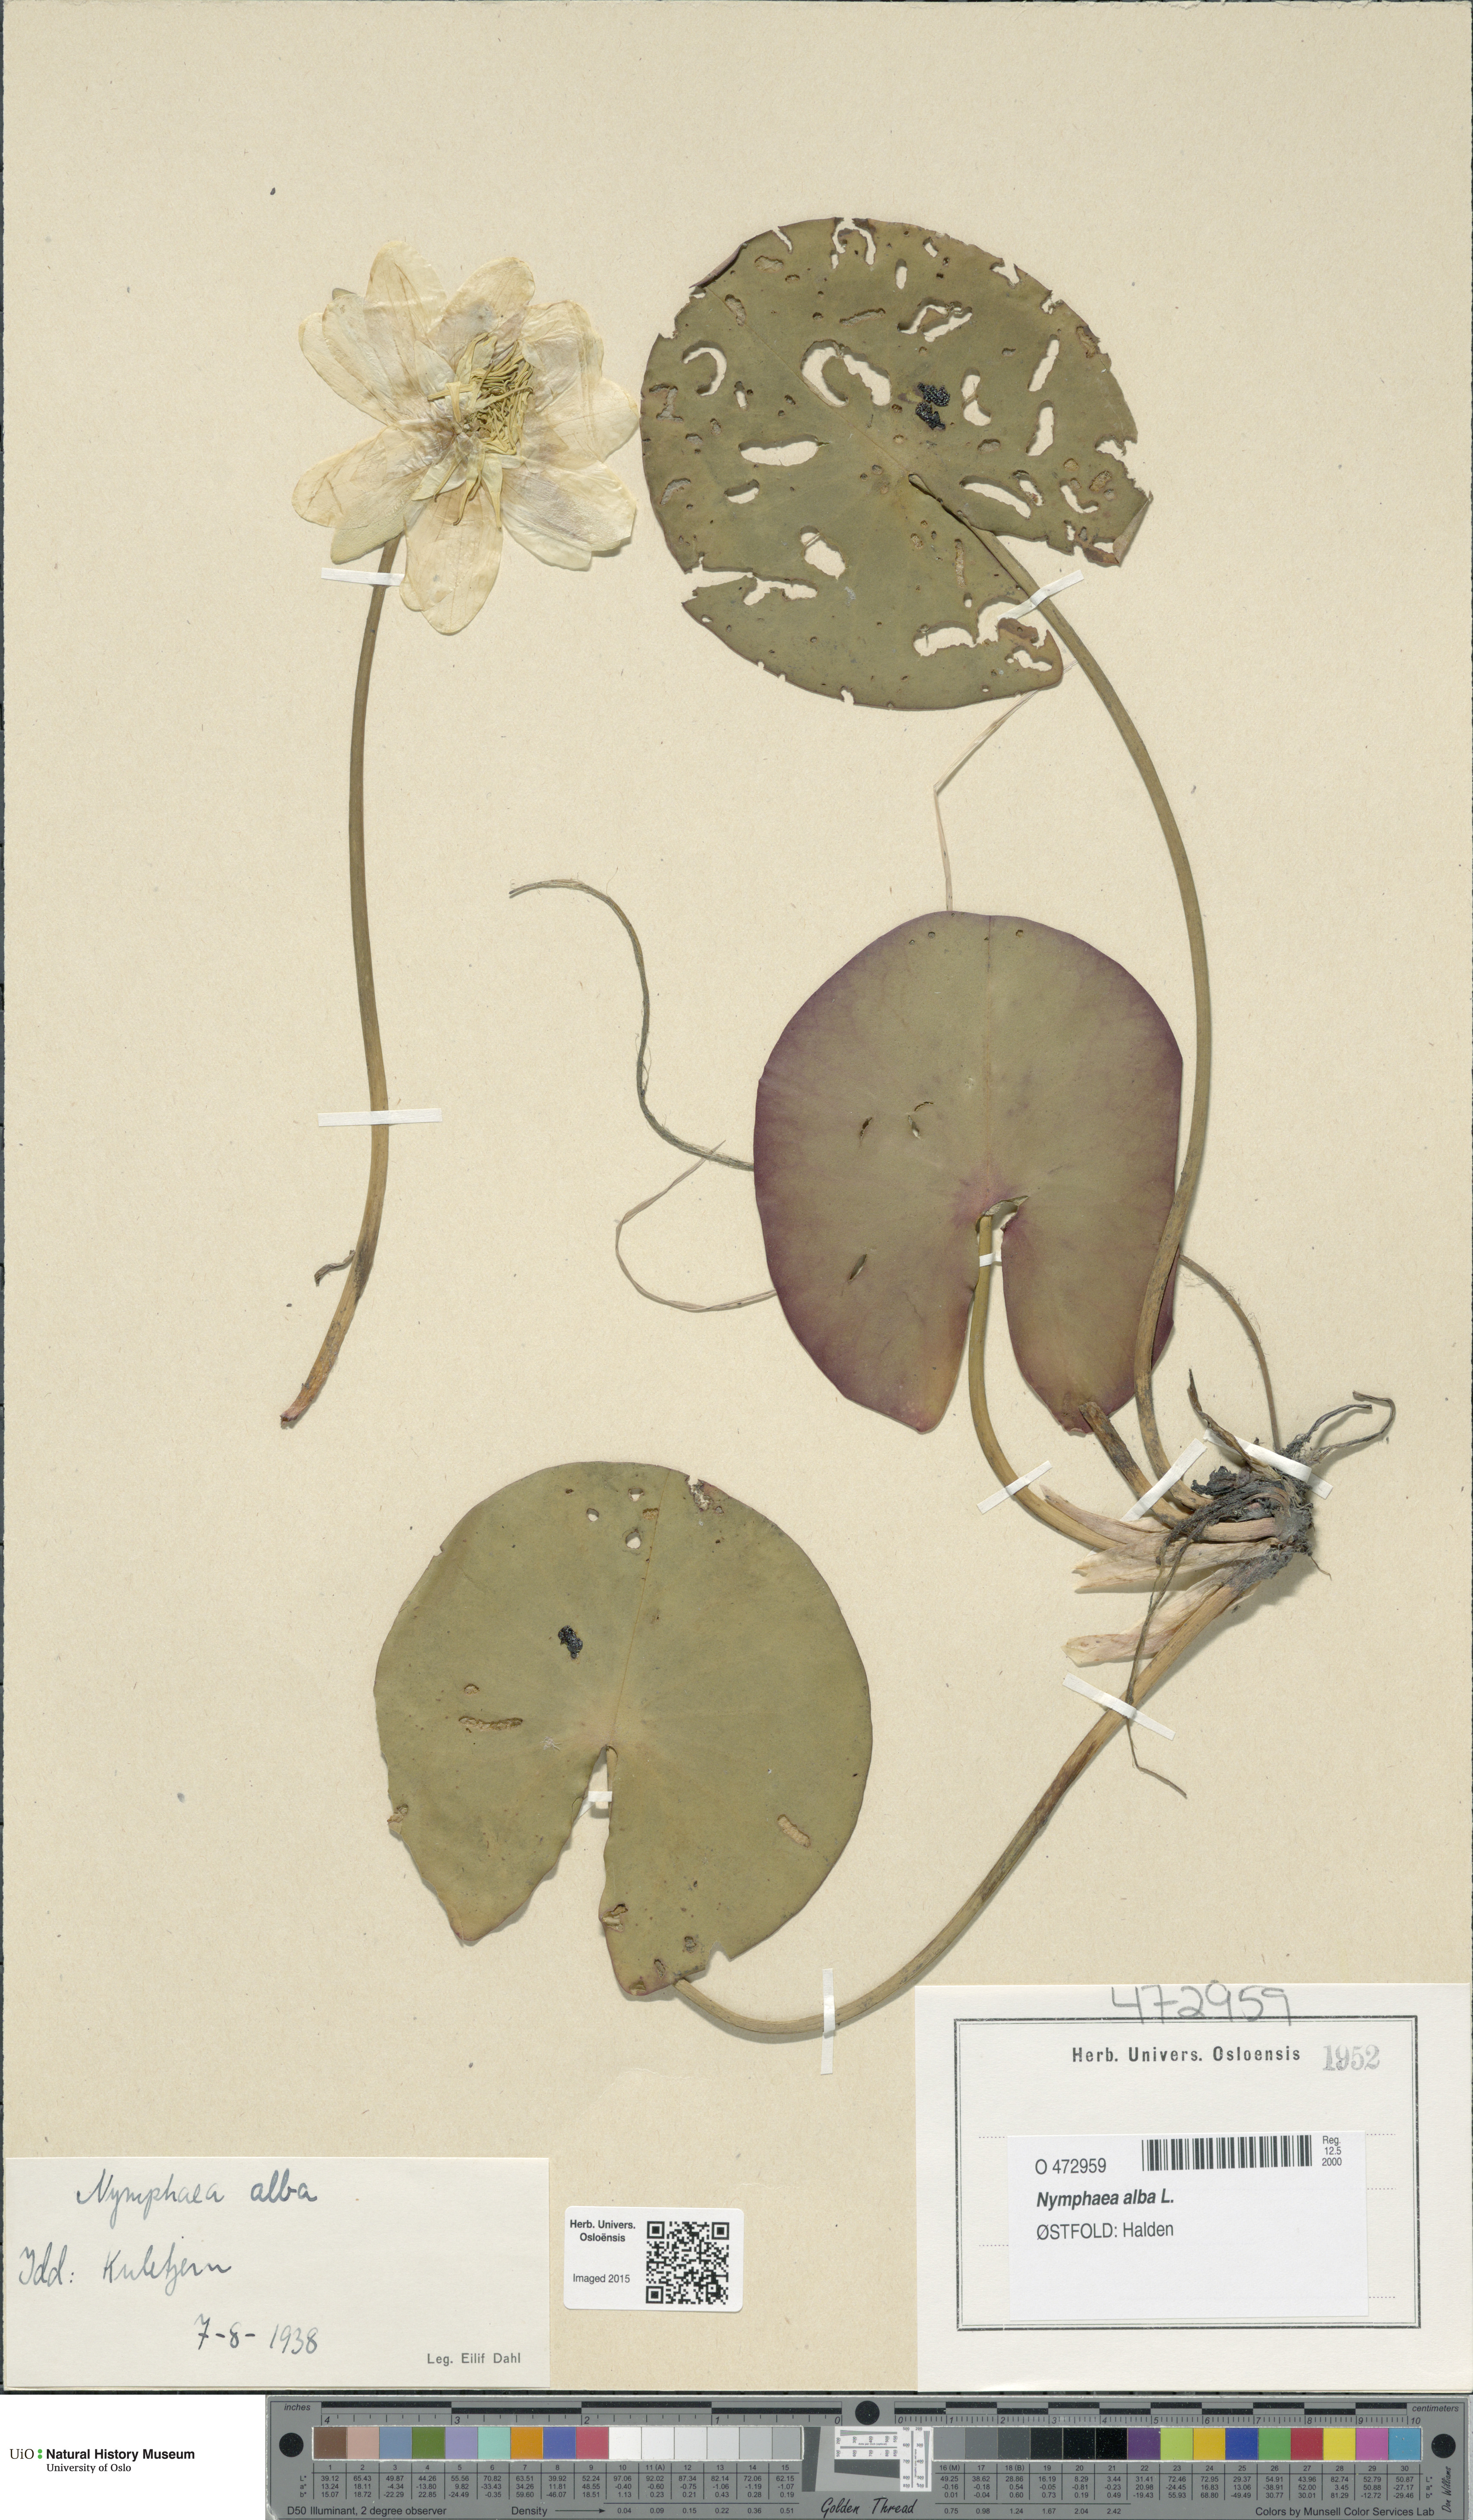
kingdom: Plantae
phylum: Tracheophyta
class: Magnoliopsida
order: Nymphaeales
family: Nymphaeaceae
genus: Nymphaea
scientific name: Nymphaea alba
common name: White water-lily
